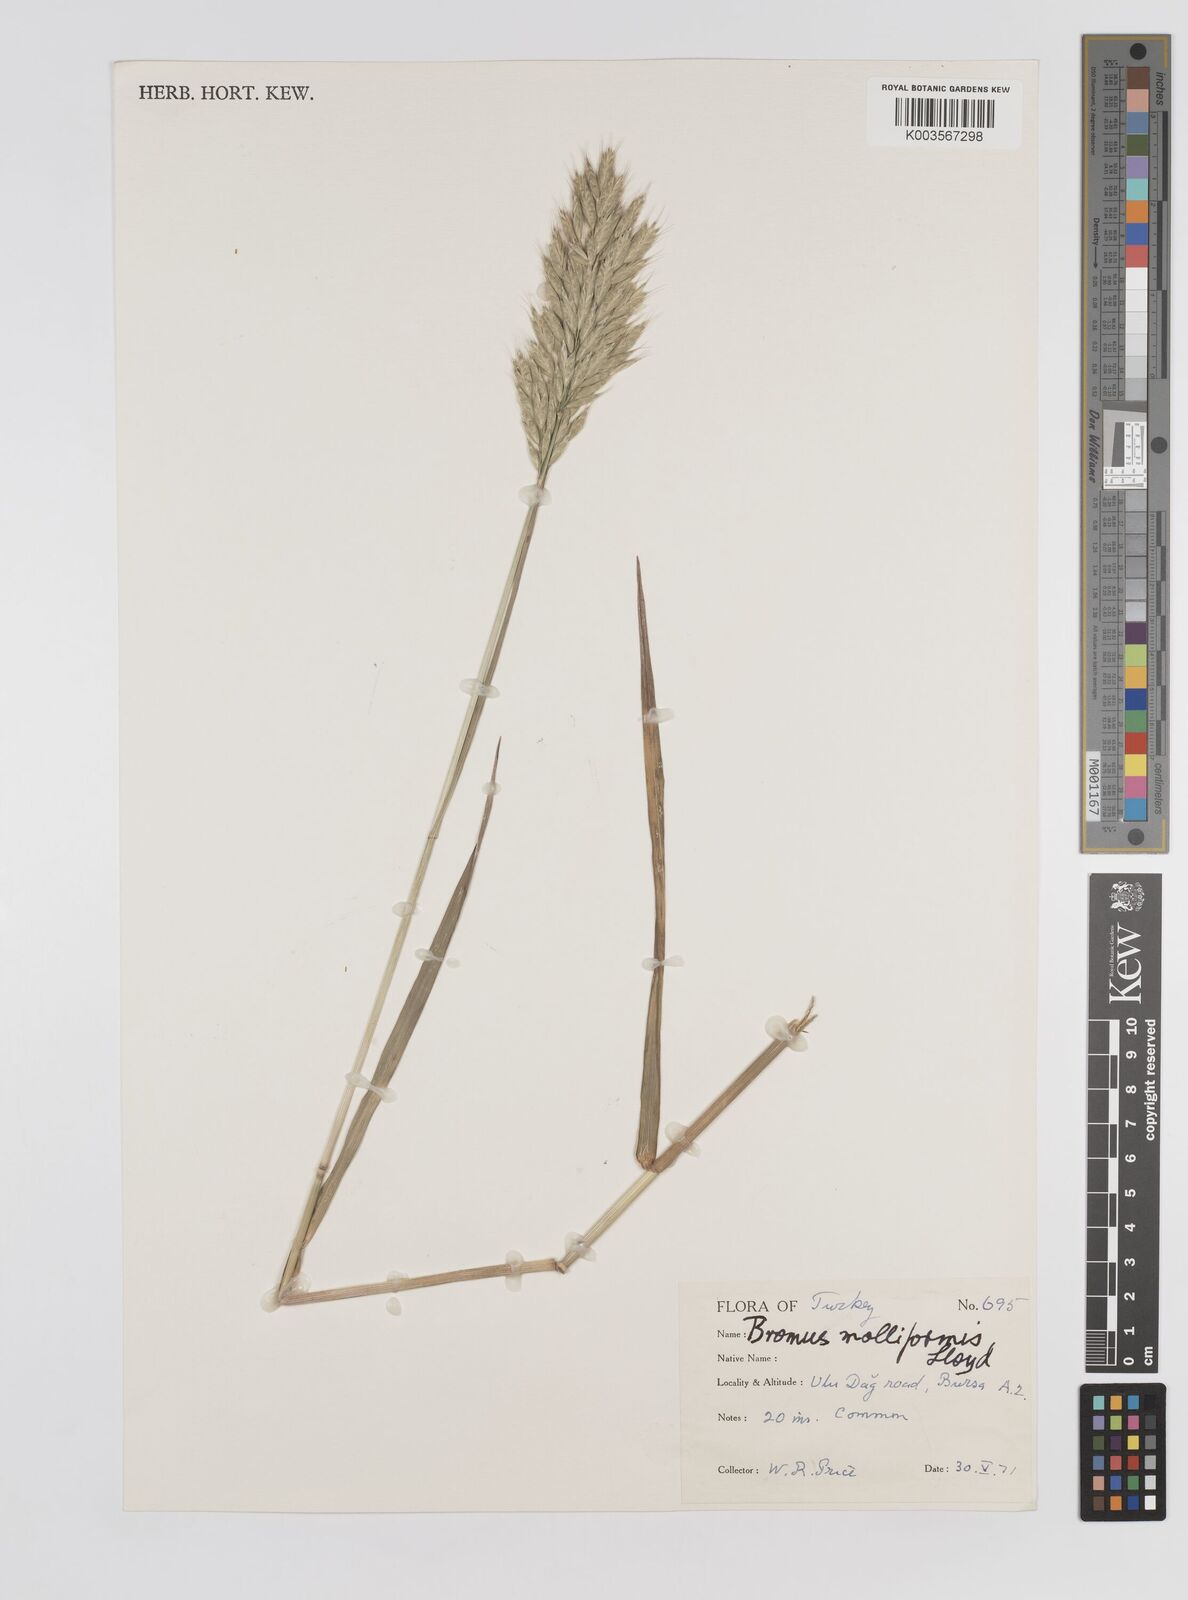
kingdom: Plantae
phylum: Tracheophyta
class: Liliopsida
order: Poales
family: Poaceae
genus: Bromus
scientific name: Bromus hordeaceus
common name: Soft brome
